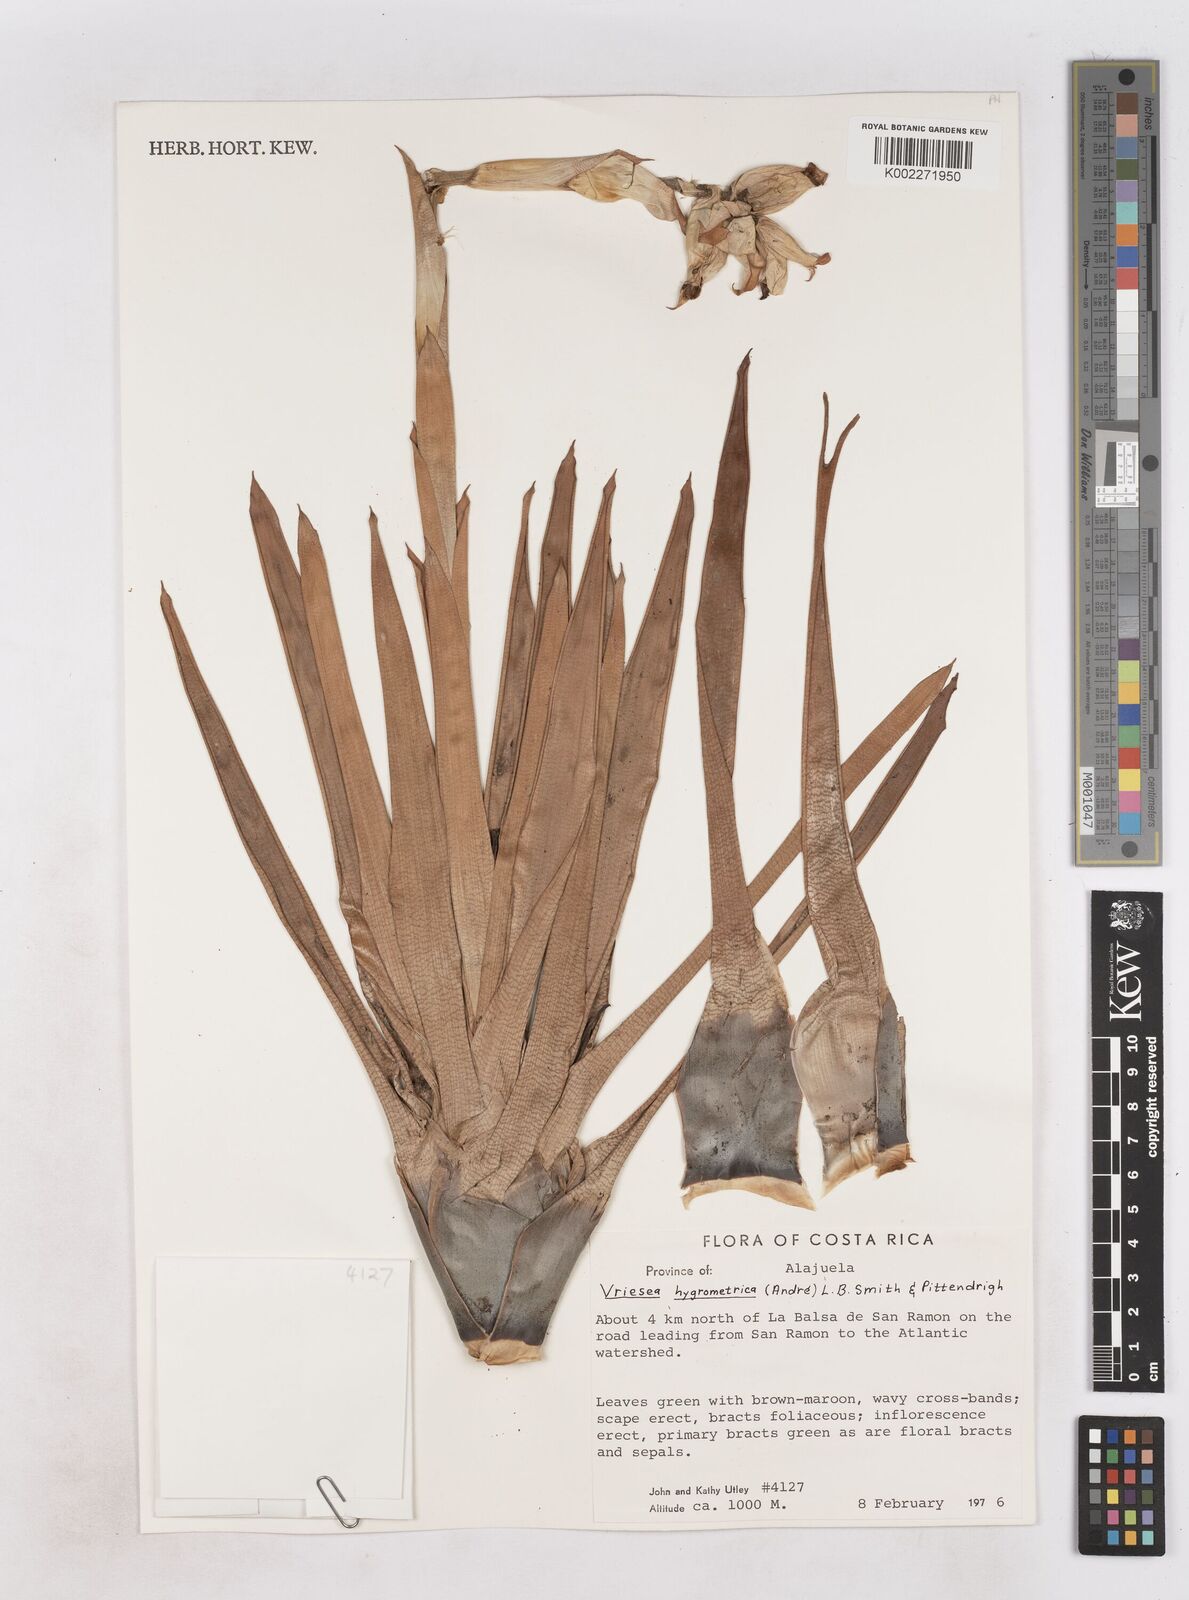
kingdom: Plantae
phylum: Tracheophyta
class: Liliopsida
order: Poales
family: Bromeliaceae
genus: Werauhia
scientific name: Werauhia hygrometrica
